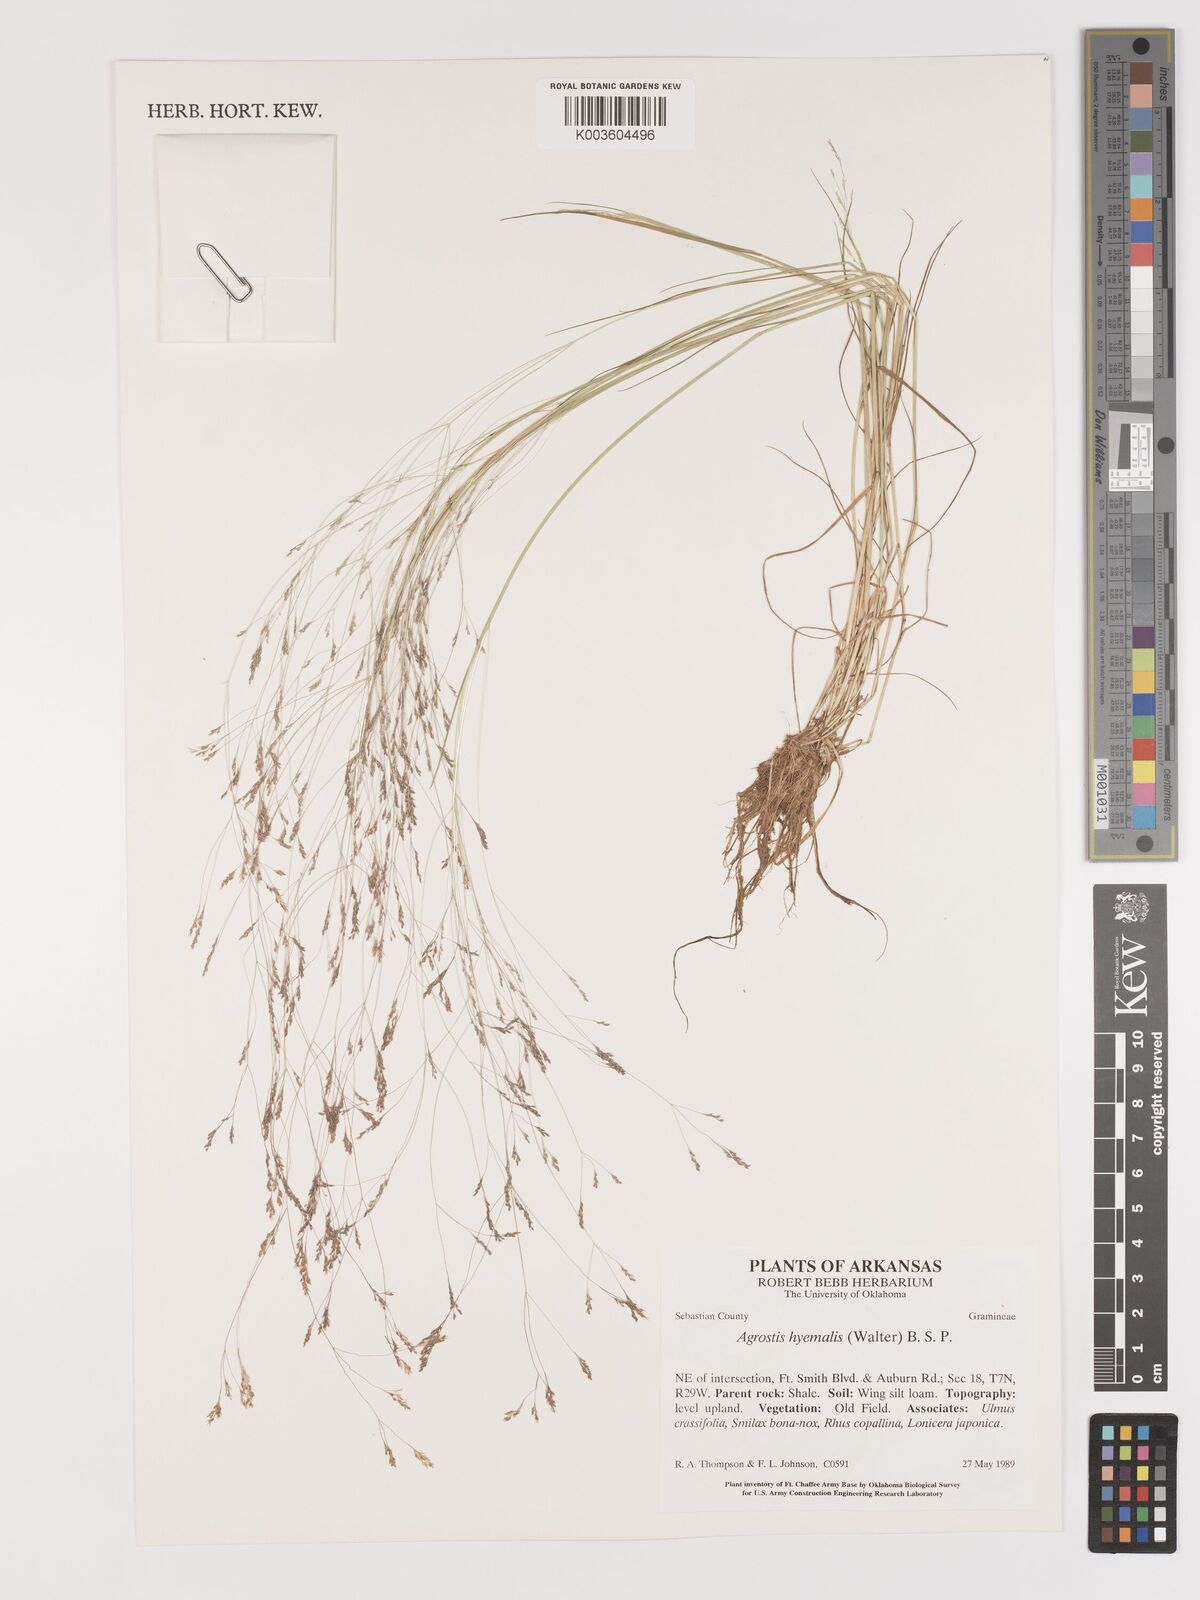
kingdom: Plantae
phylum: Tracheophyta
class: Liliopsida
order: Poales
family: Poaceae
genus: Agrostis
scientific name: Agrostis hyemalis
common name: Small bent
